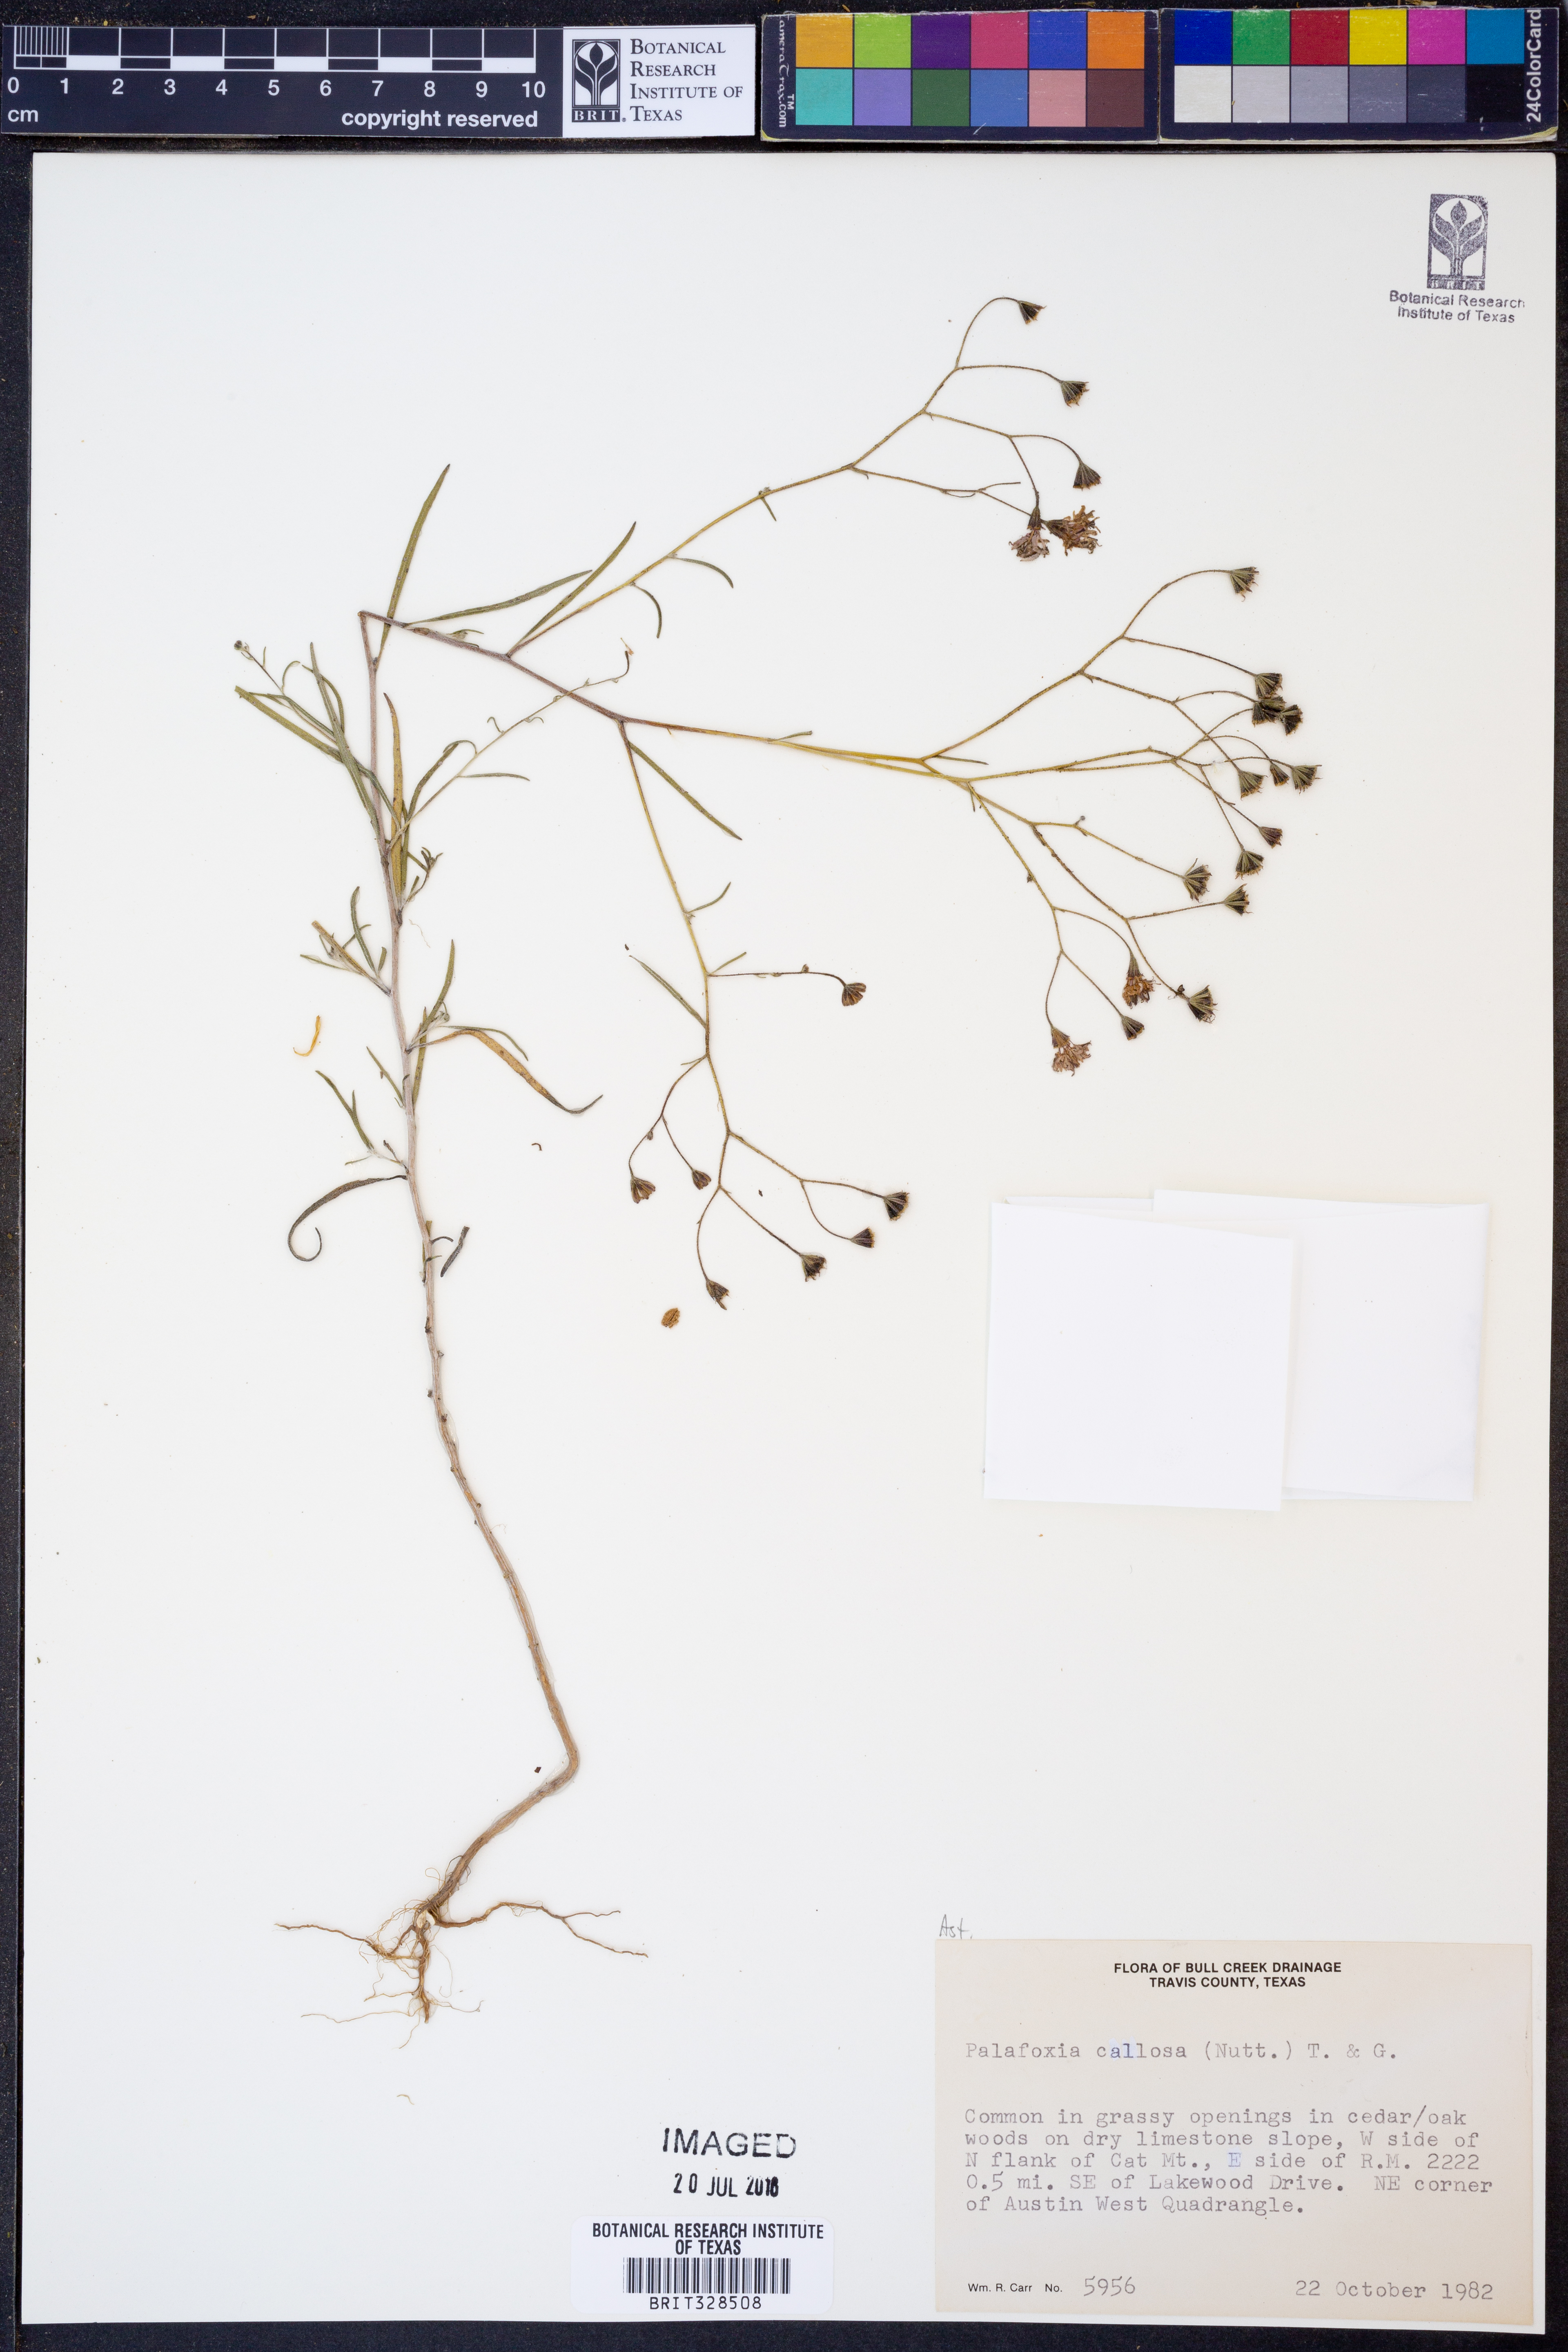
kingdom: Plantae
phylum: Tracheophyta
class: Magnoliopsida
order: Asterales
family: Asteraceae
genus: Palafoxia
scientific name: Palafoxia callosa
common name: Small palafox
